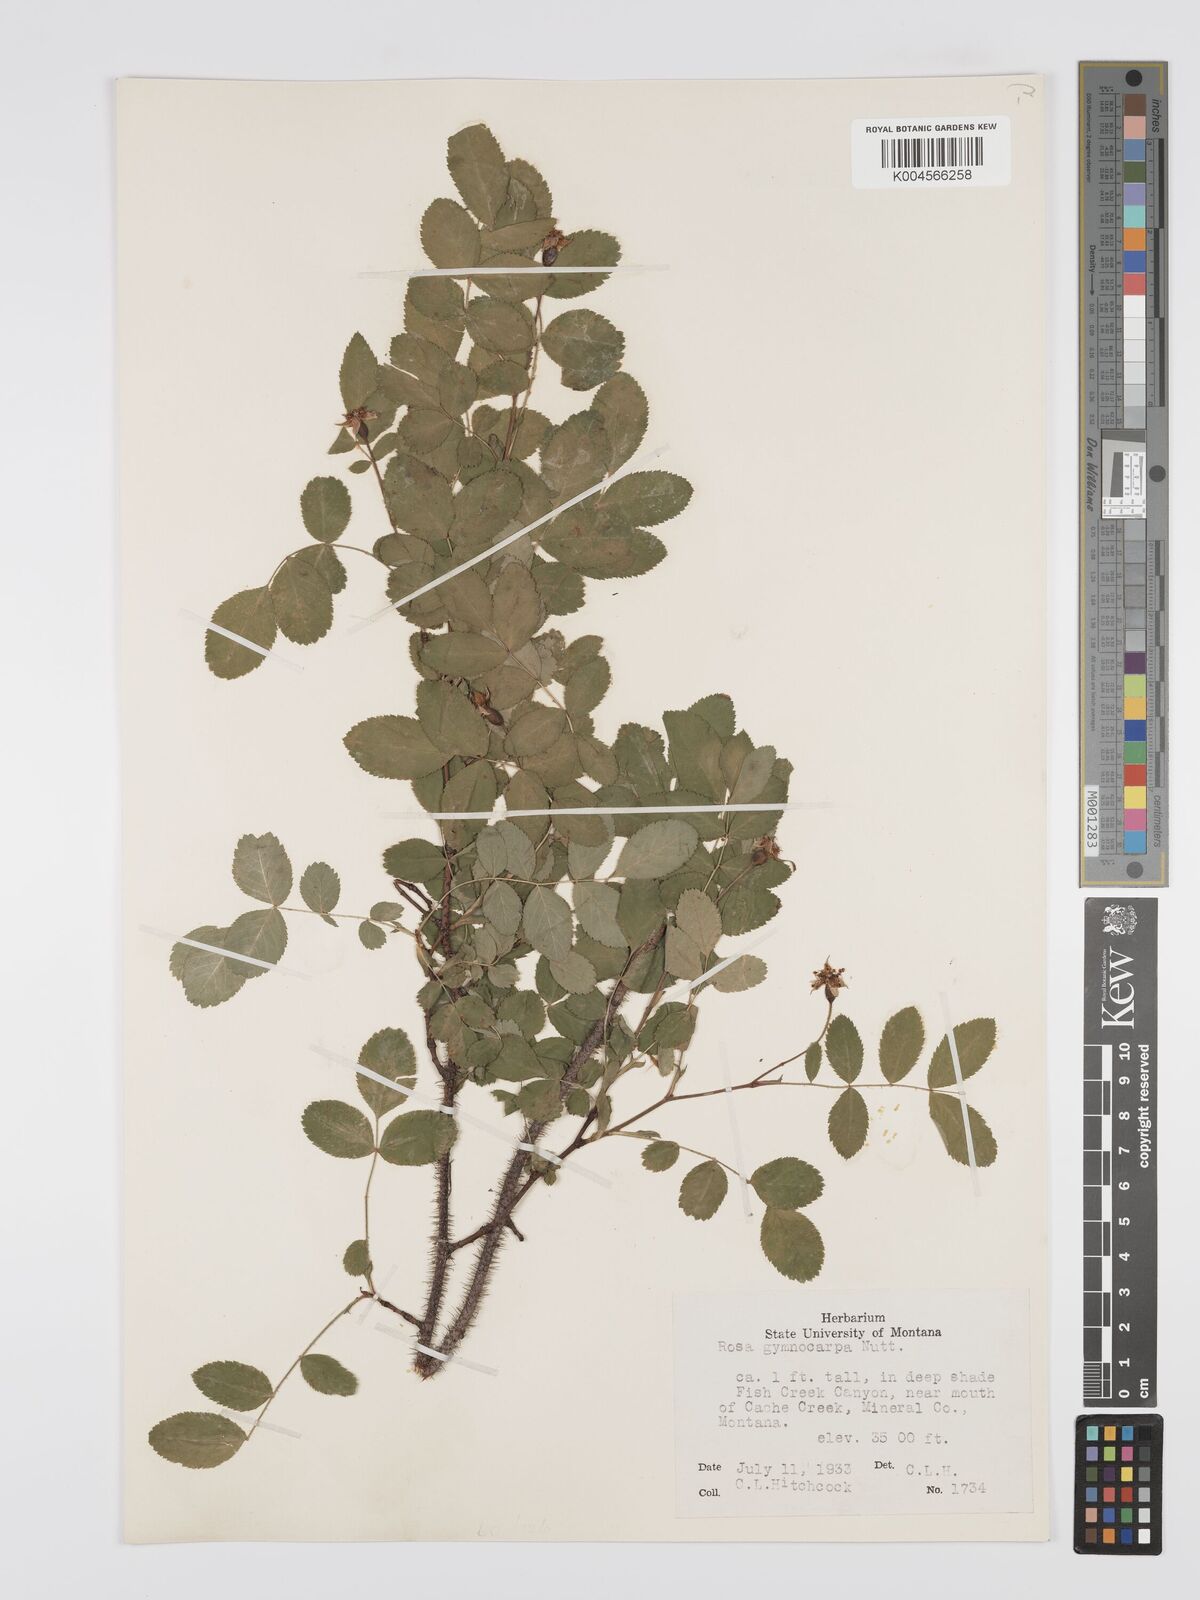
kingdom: Plantae
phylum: Tracheophyta
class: Magnoliopsida
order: Rosales
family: Rosaceae
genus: Rosa
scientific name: Rosa gymnocarpa
